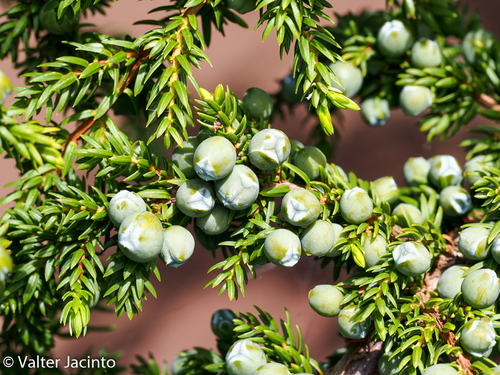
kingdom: Plantae
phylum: Tracheophyta
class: Pinopsida
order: Pinales
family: Cupressaceae
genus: Juniperus
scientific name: Juniperus brevifolia
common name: Azores juniper
